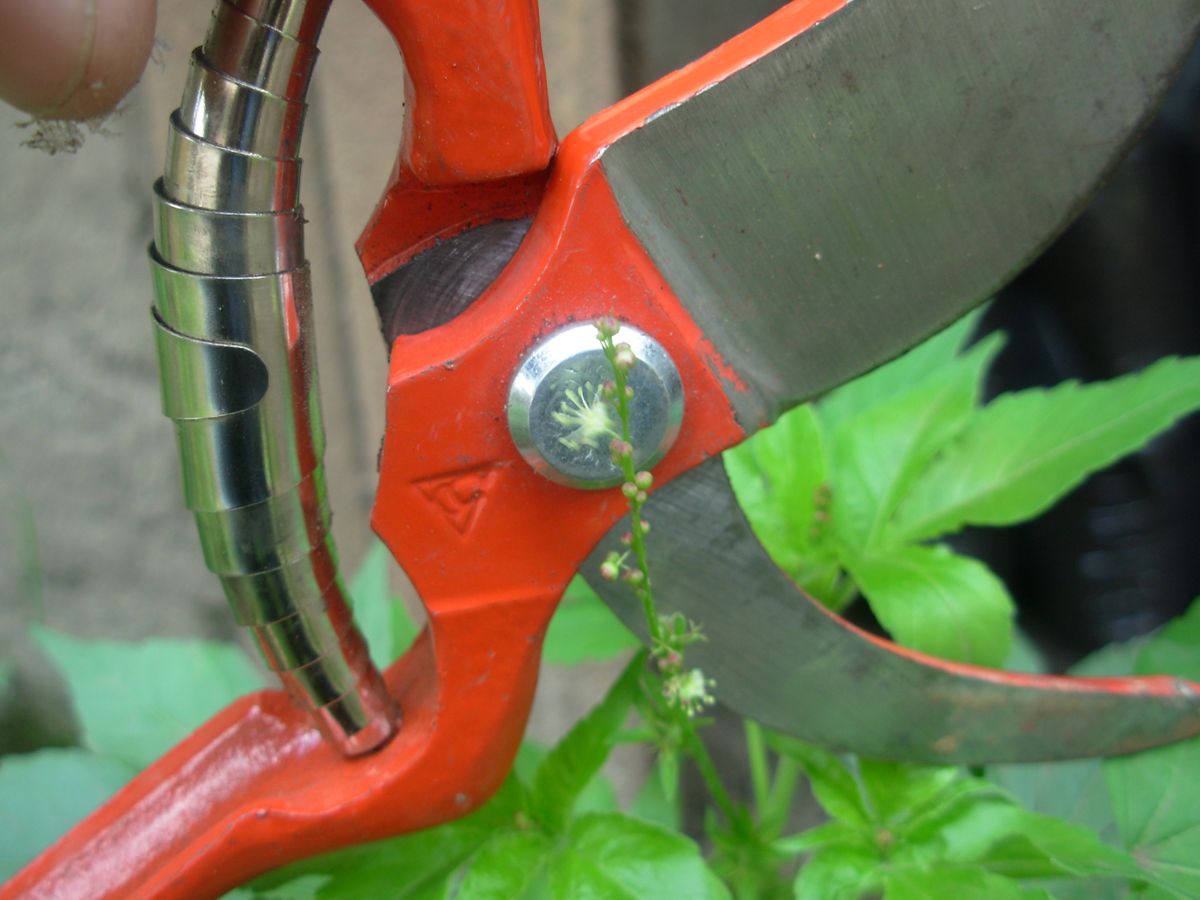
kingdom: Plantae
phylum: Tracheophyta
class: Magnoliopsida
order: Malpighiales
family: Euphorbiaceae
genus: Astraea
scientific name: Astraea lobata
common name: Lobed croton
